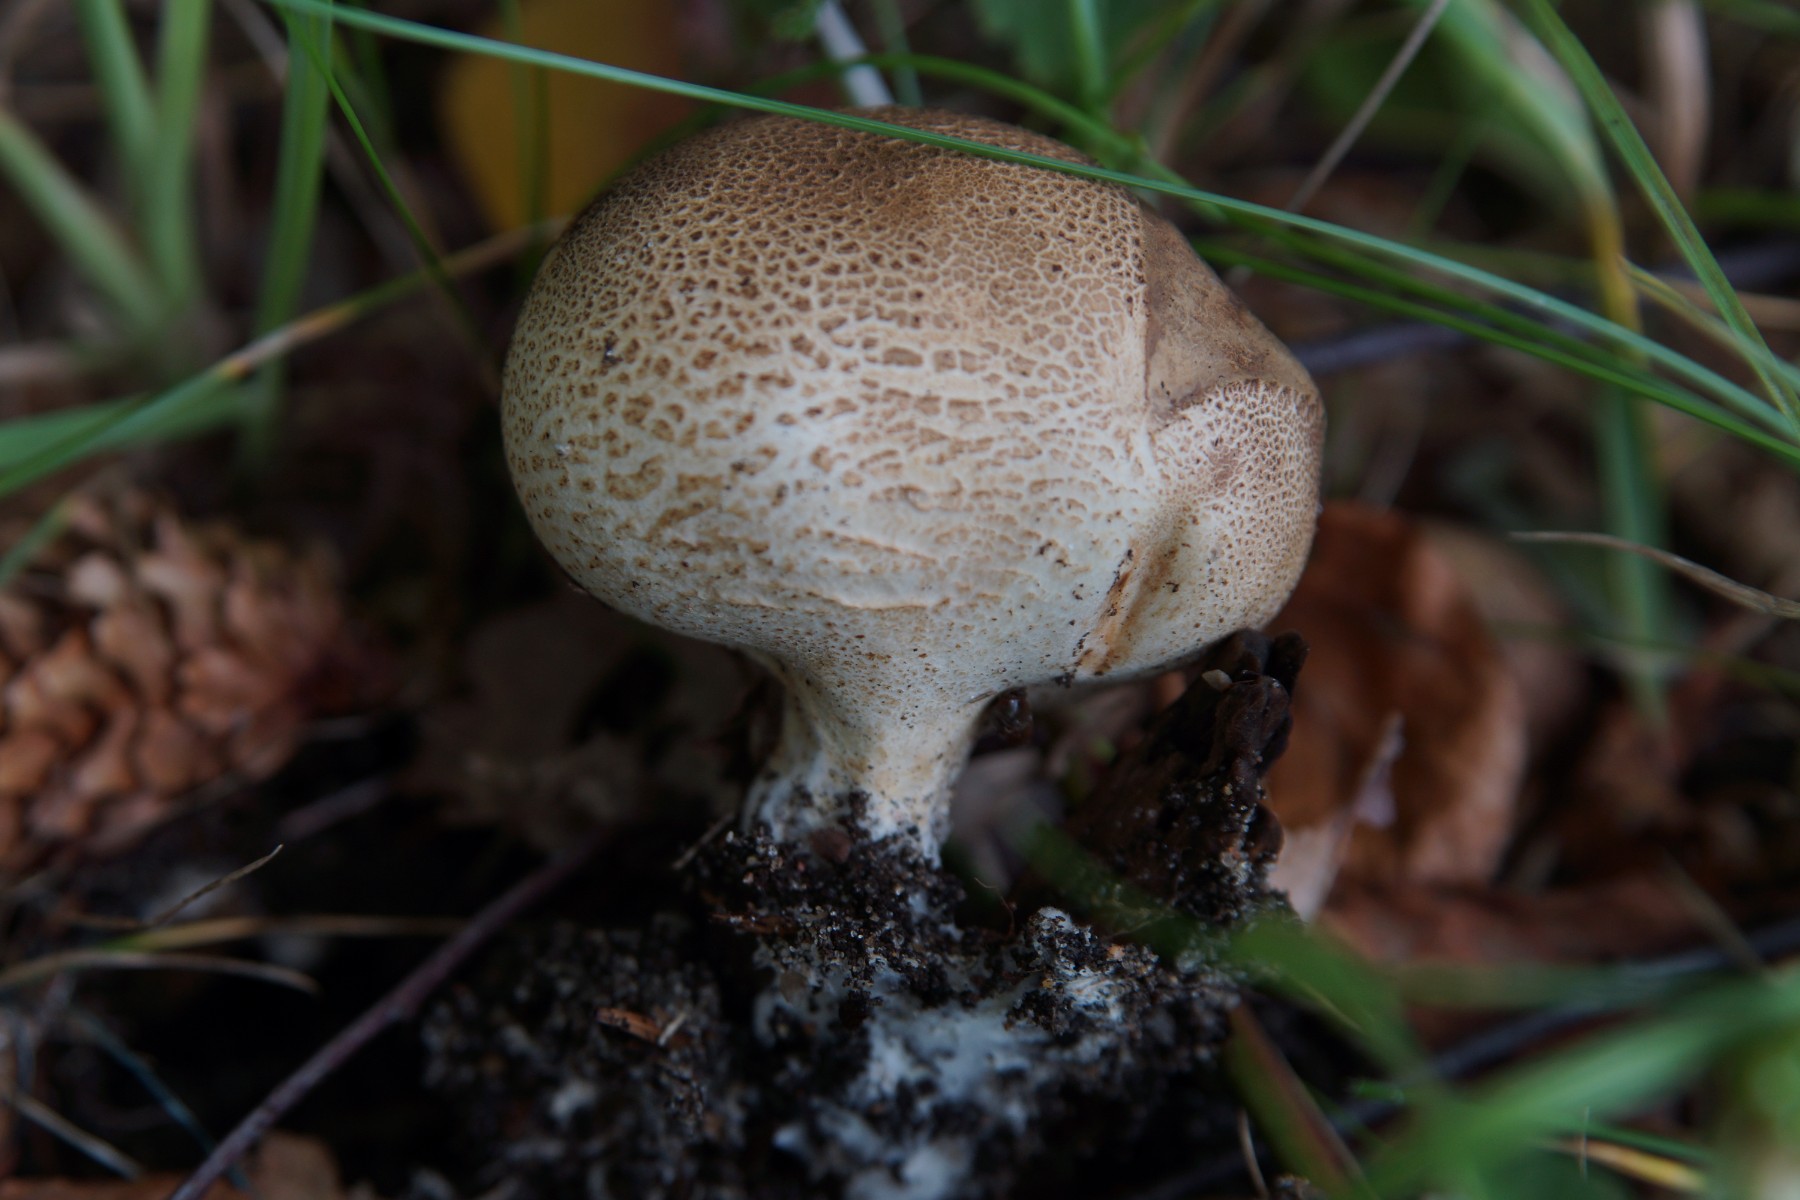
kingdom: Fungi
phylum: Basidiomycota
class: Agaricomycetes
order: Boletales
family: Sclerodermataceae
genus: Scleroderma
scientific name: Scleroderma verrucosum
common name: stilket bruskbold
